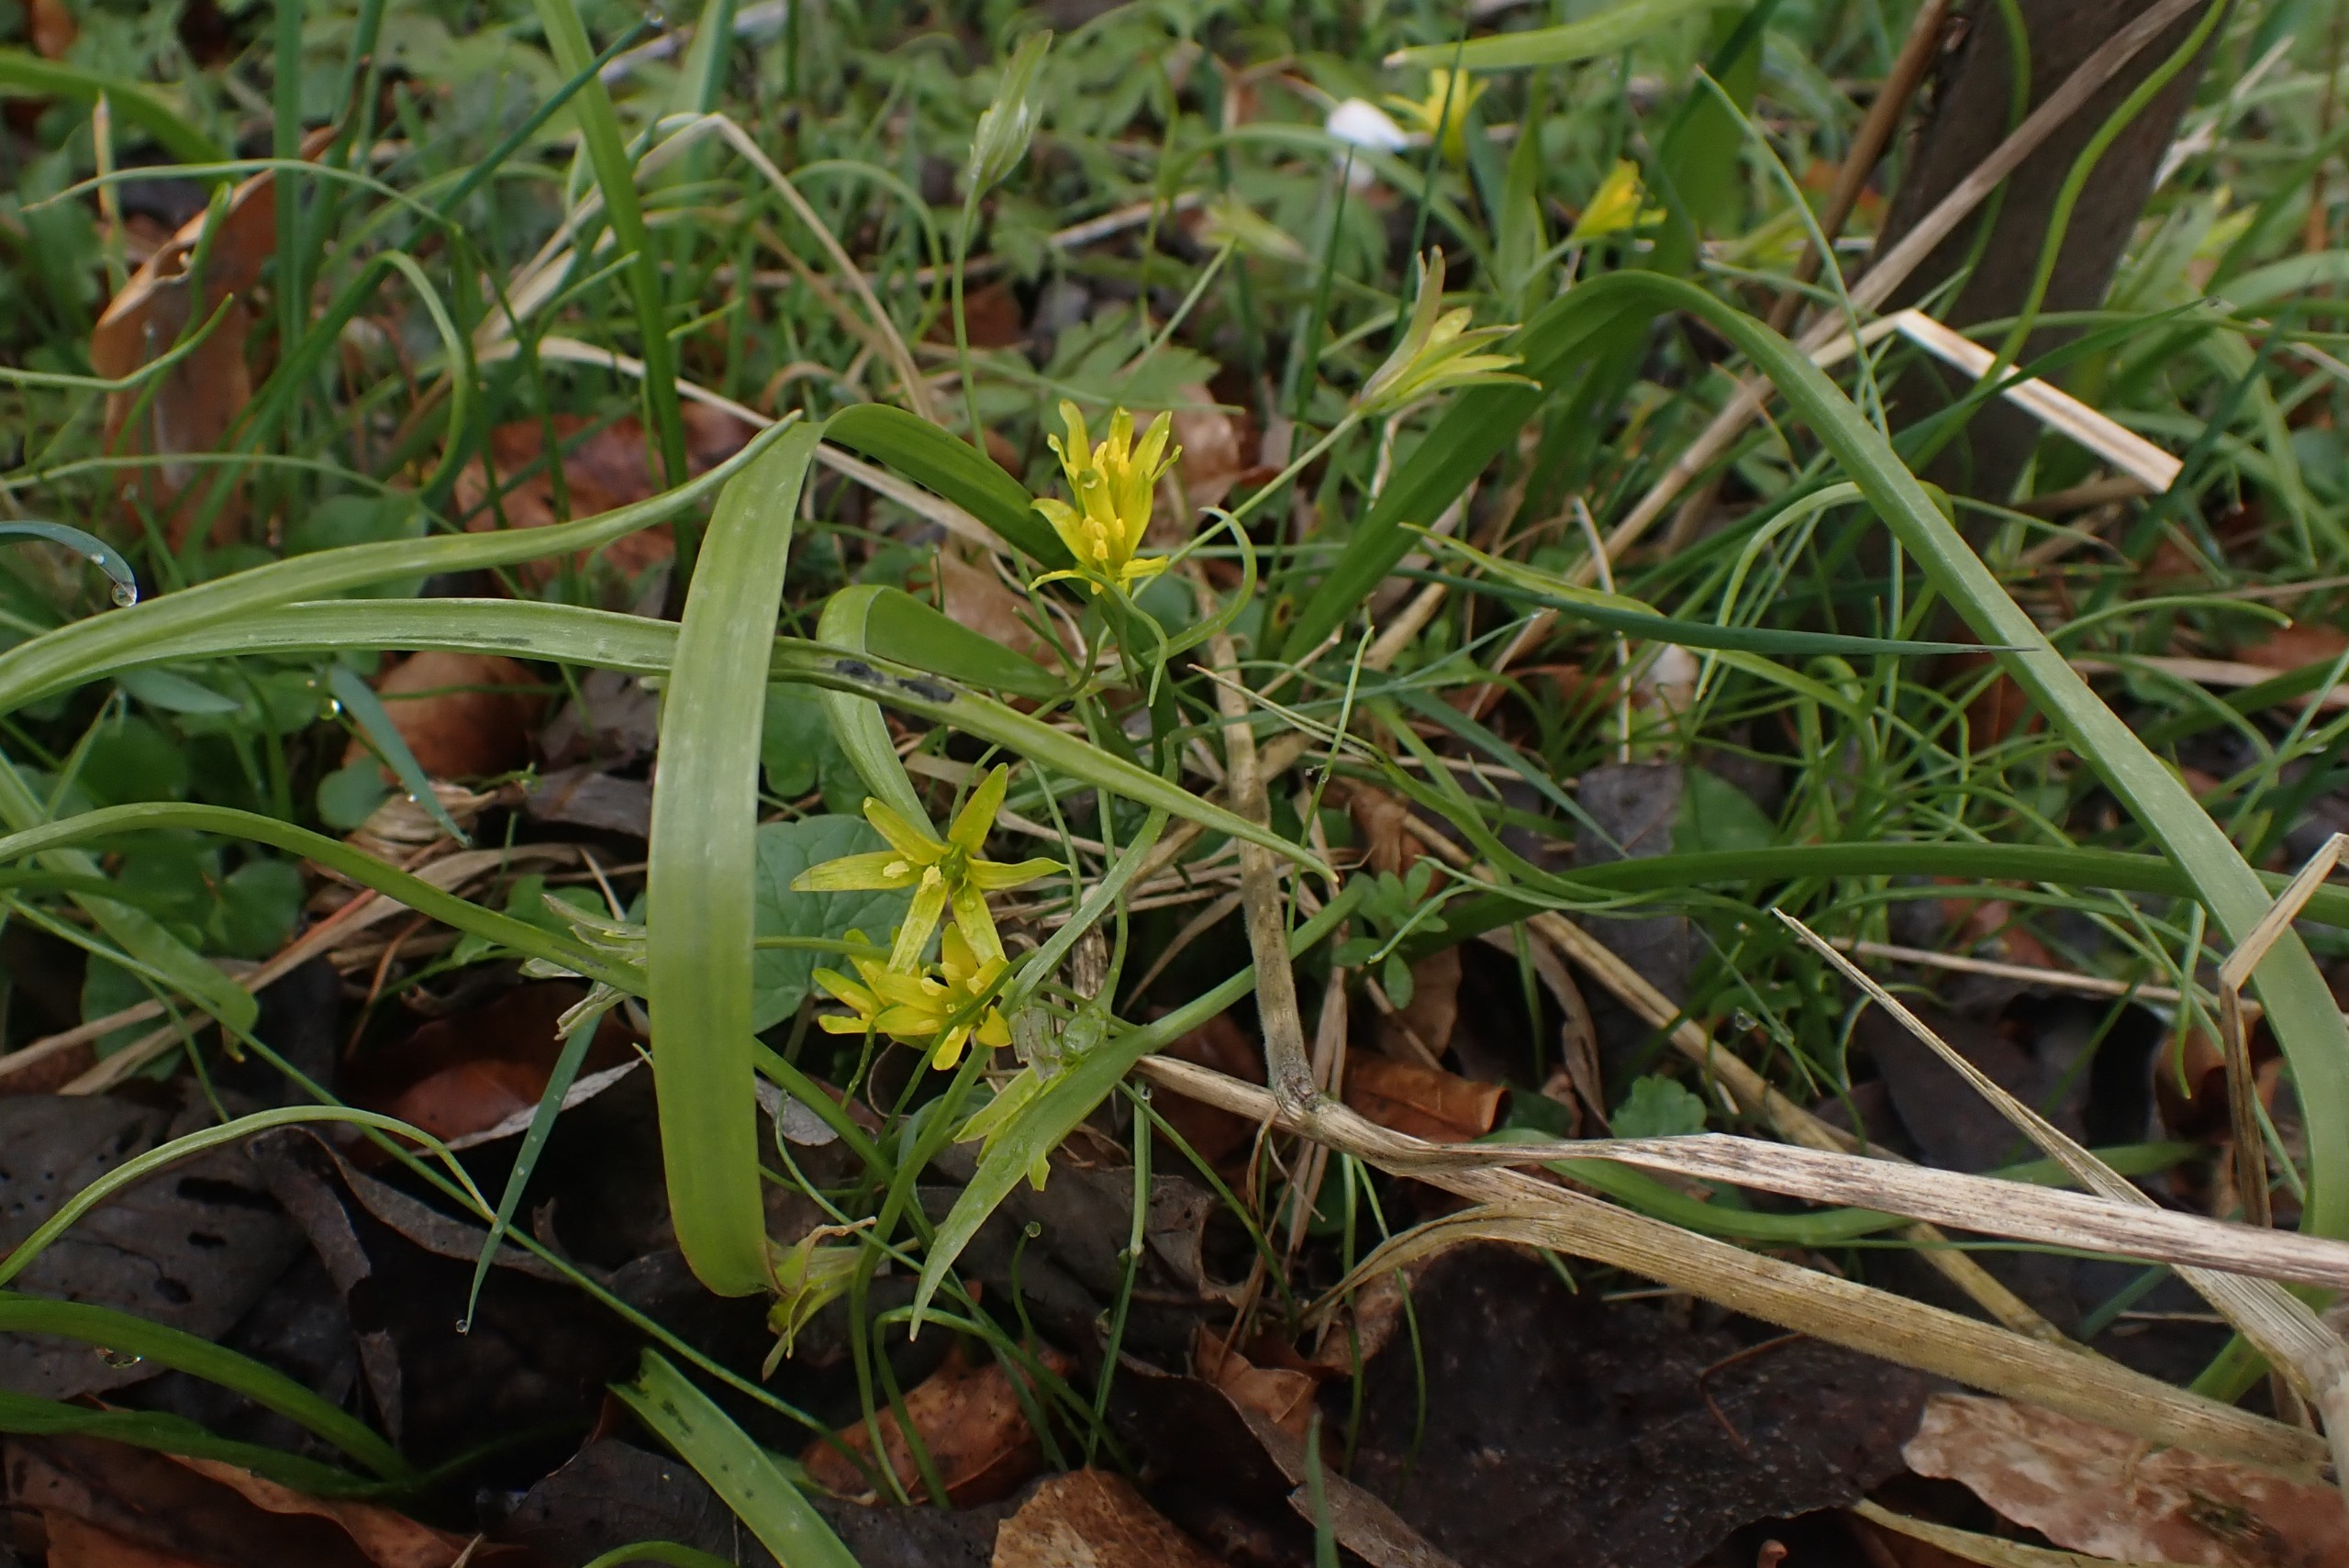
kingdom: Plantae
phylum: Tracheophyta
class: Liliopsida
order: Liliales
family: Liliaceae
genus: Gagea
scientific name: Gagea lutea
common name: Almindelig guldstjerne
